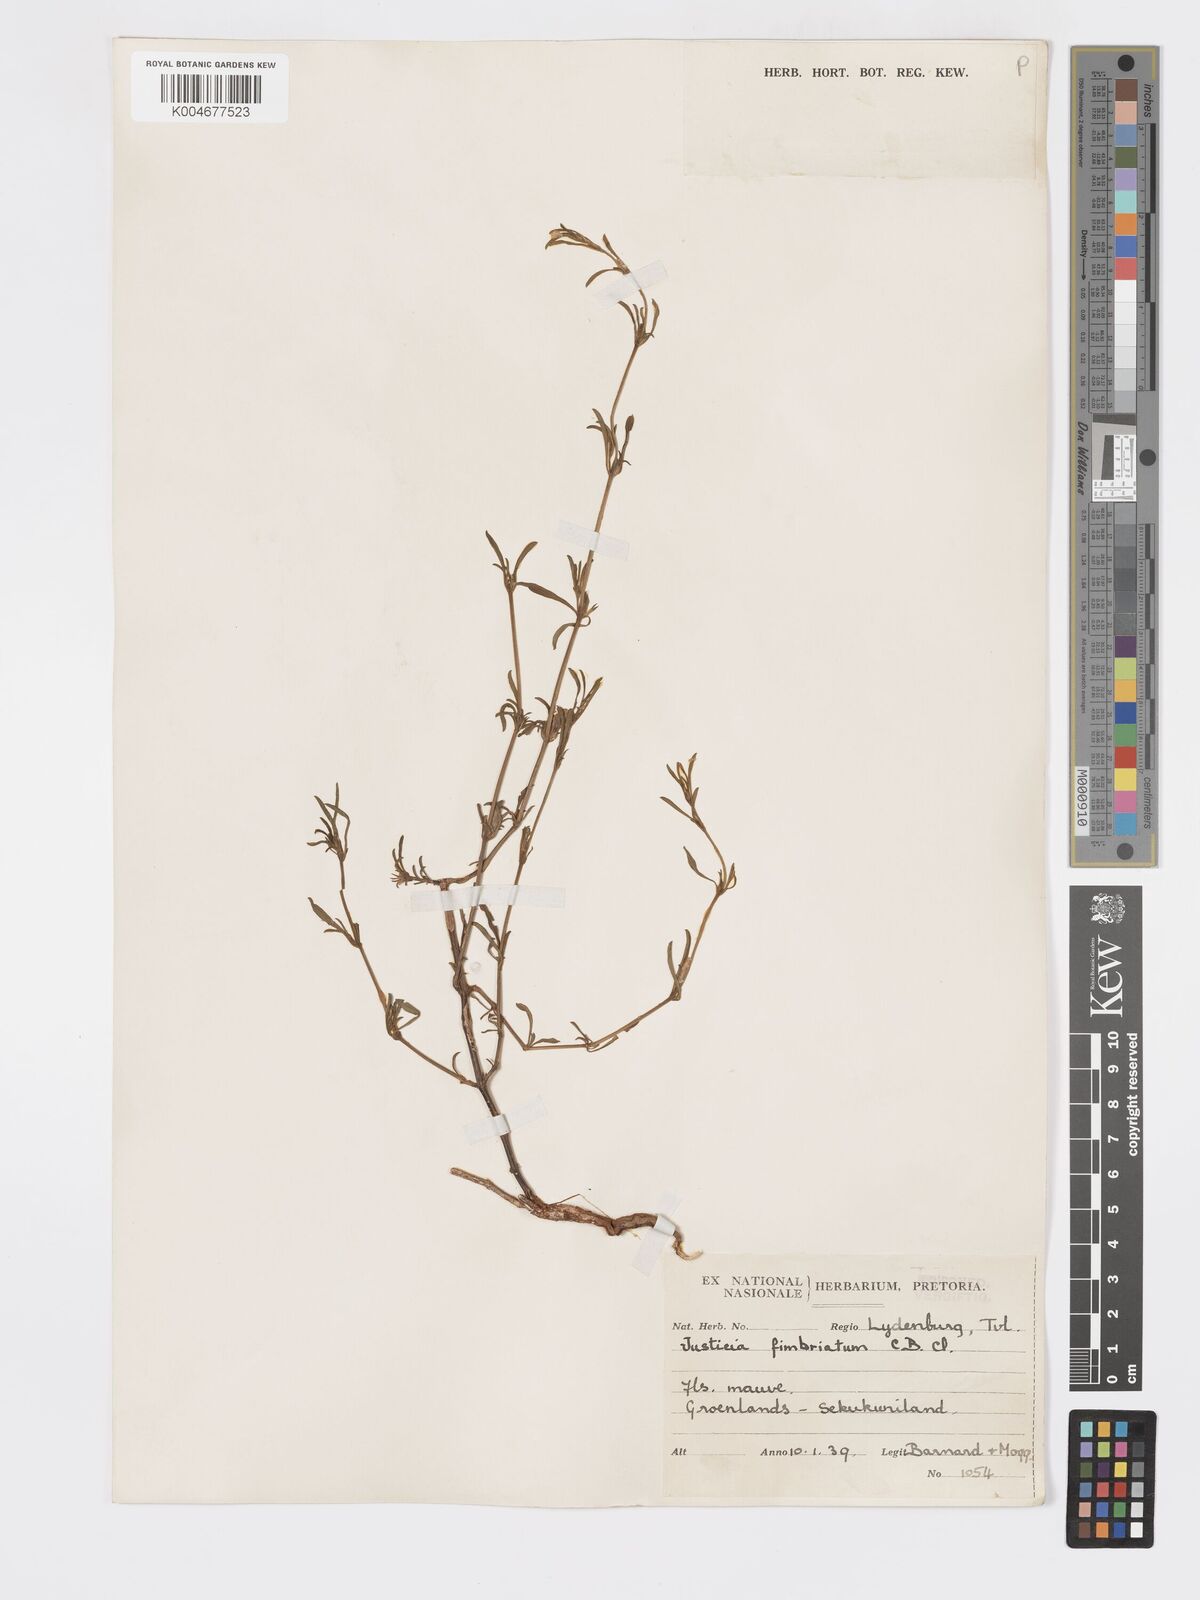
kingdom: Plantae
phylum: Tracheophyta
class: Magnoliopsida
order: Lamiales
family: Acanthaceae
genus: Pogonospermum
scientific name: Pogonospermum
